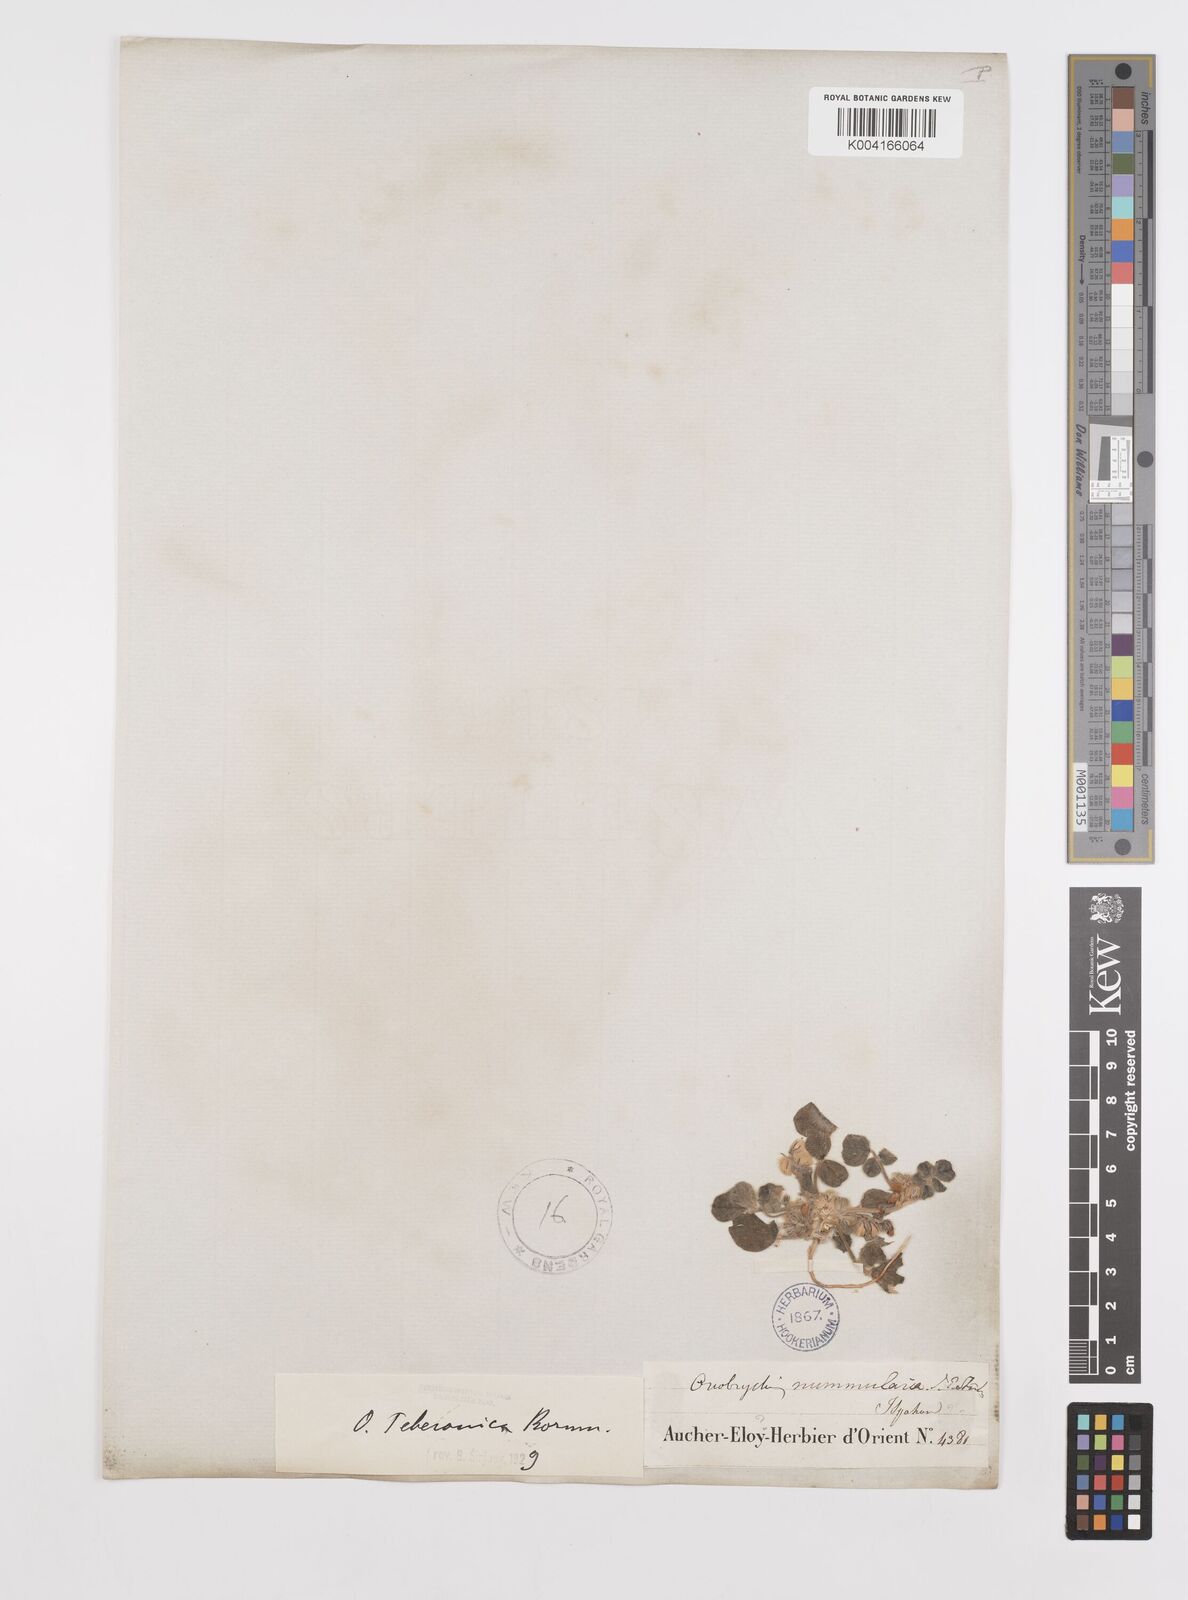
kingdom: Plantae
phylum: Tracheophyta
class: Magnoliopsida
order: Fabales
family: Fabaceae
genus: Onobrychis
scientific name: Onobrychis aucheri
